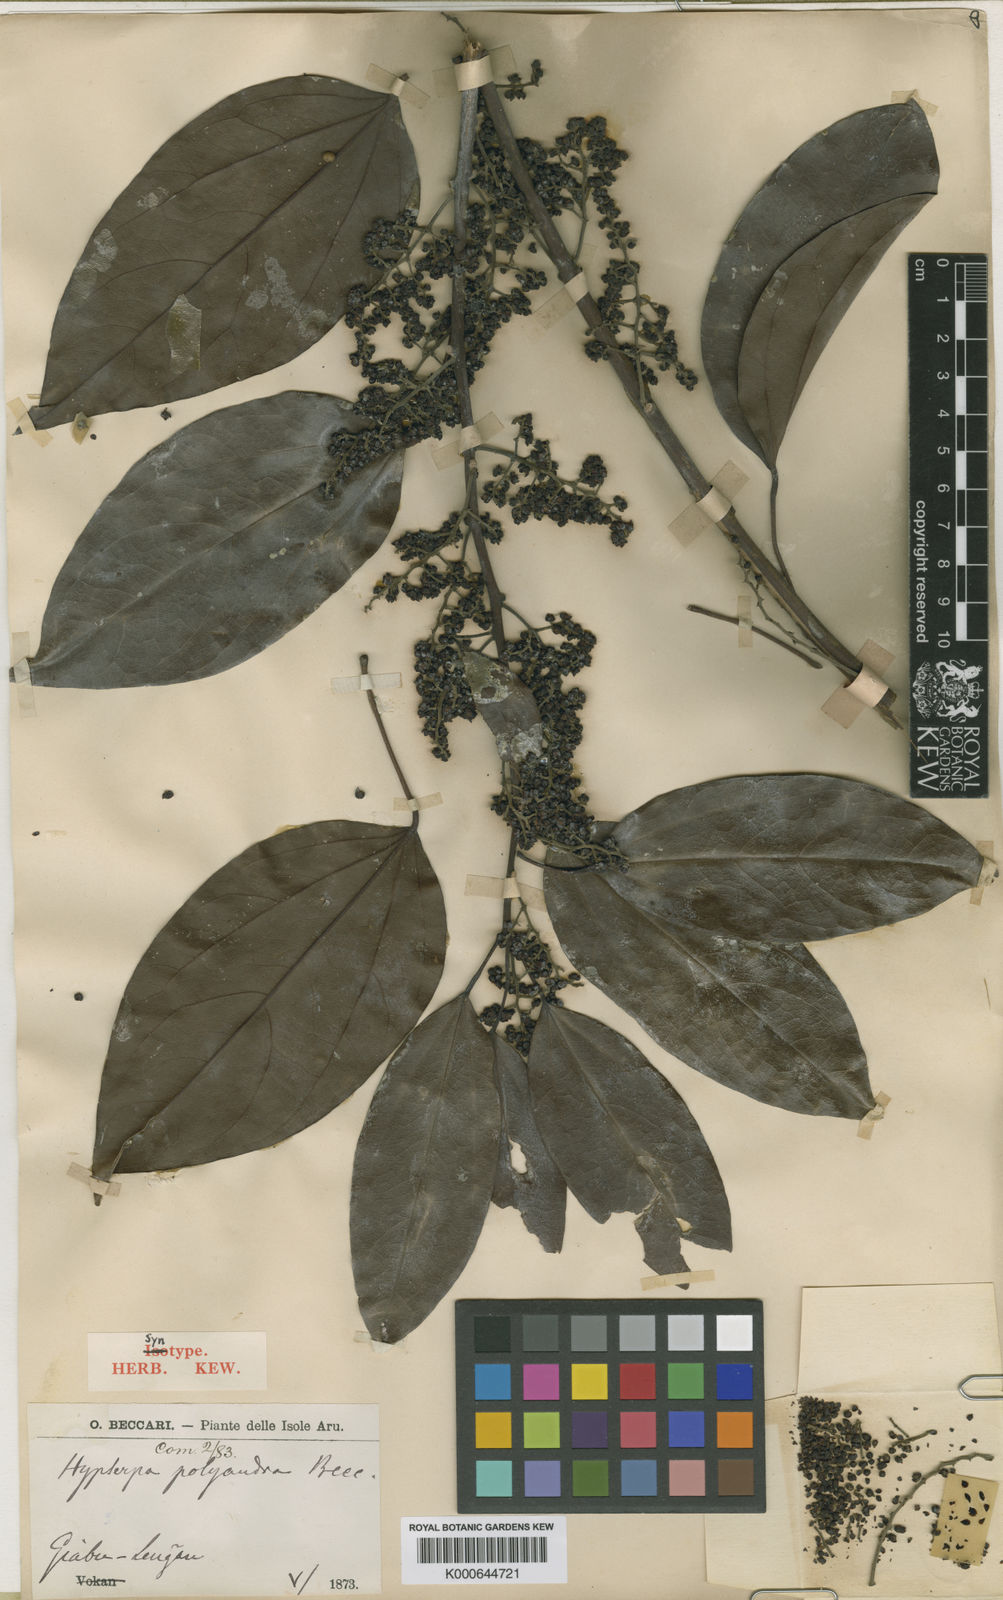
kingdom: Plantae
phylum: Tracheophyta
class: Magnoliopsida
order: Ranunculales
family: Menispermaceae
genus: Hypserpa
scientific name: Hypserpa polyandra
